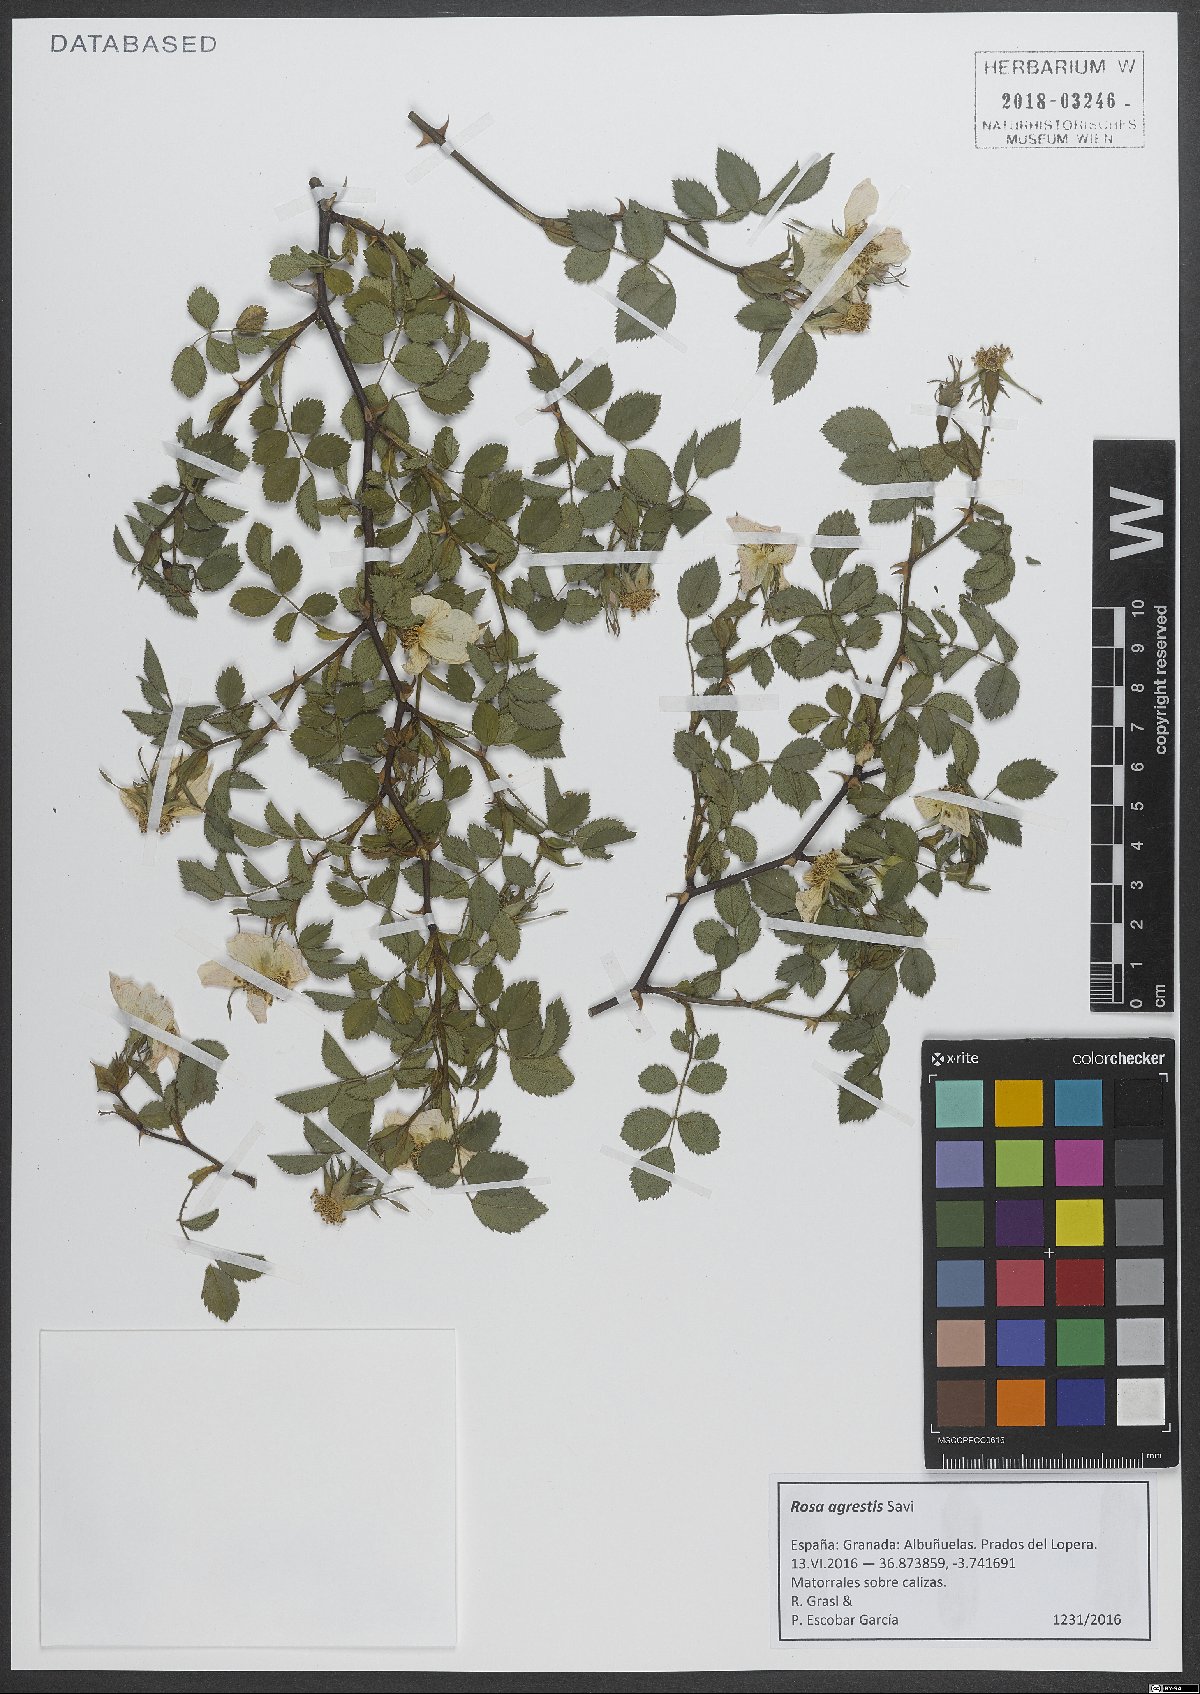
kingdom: Plantae
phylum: Tracheophyta
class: Magnoliopsida
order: Rosales
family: Rosaceae
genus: Rosa
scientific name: Rosa agrestis
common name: Fieldbriar
